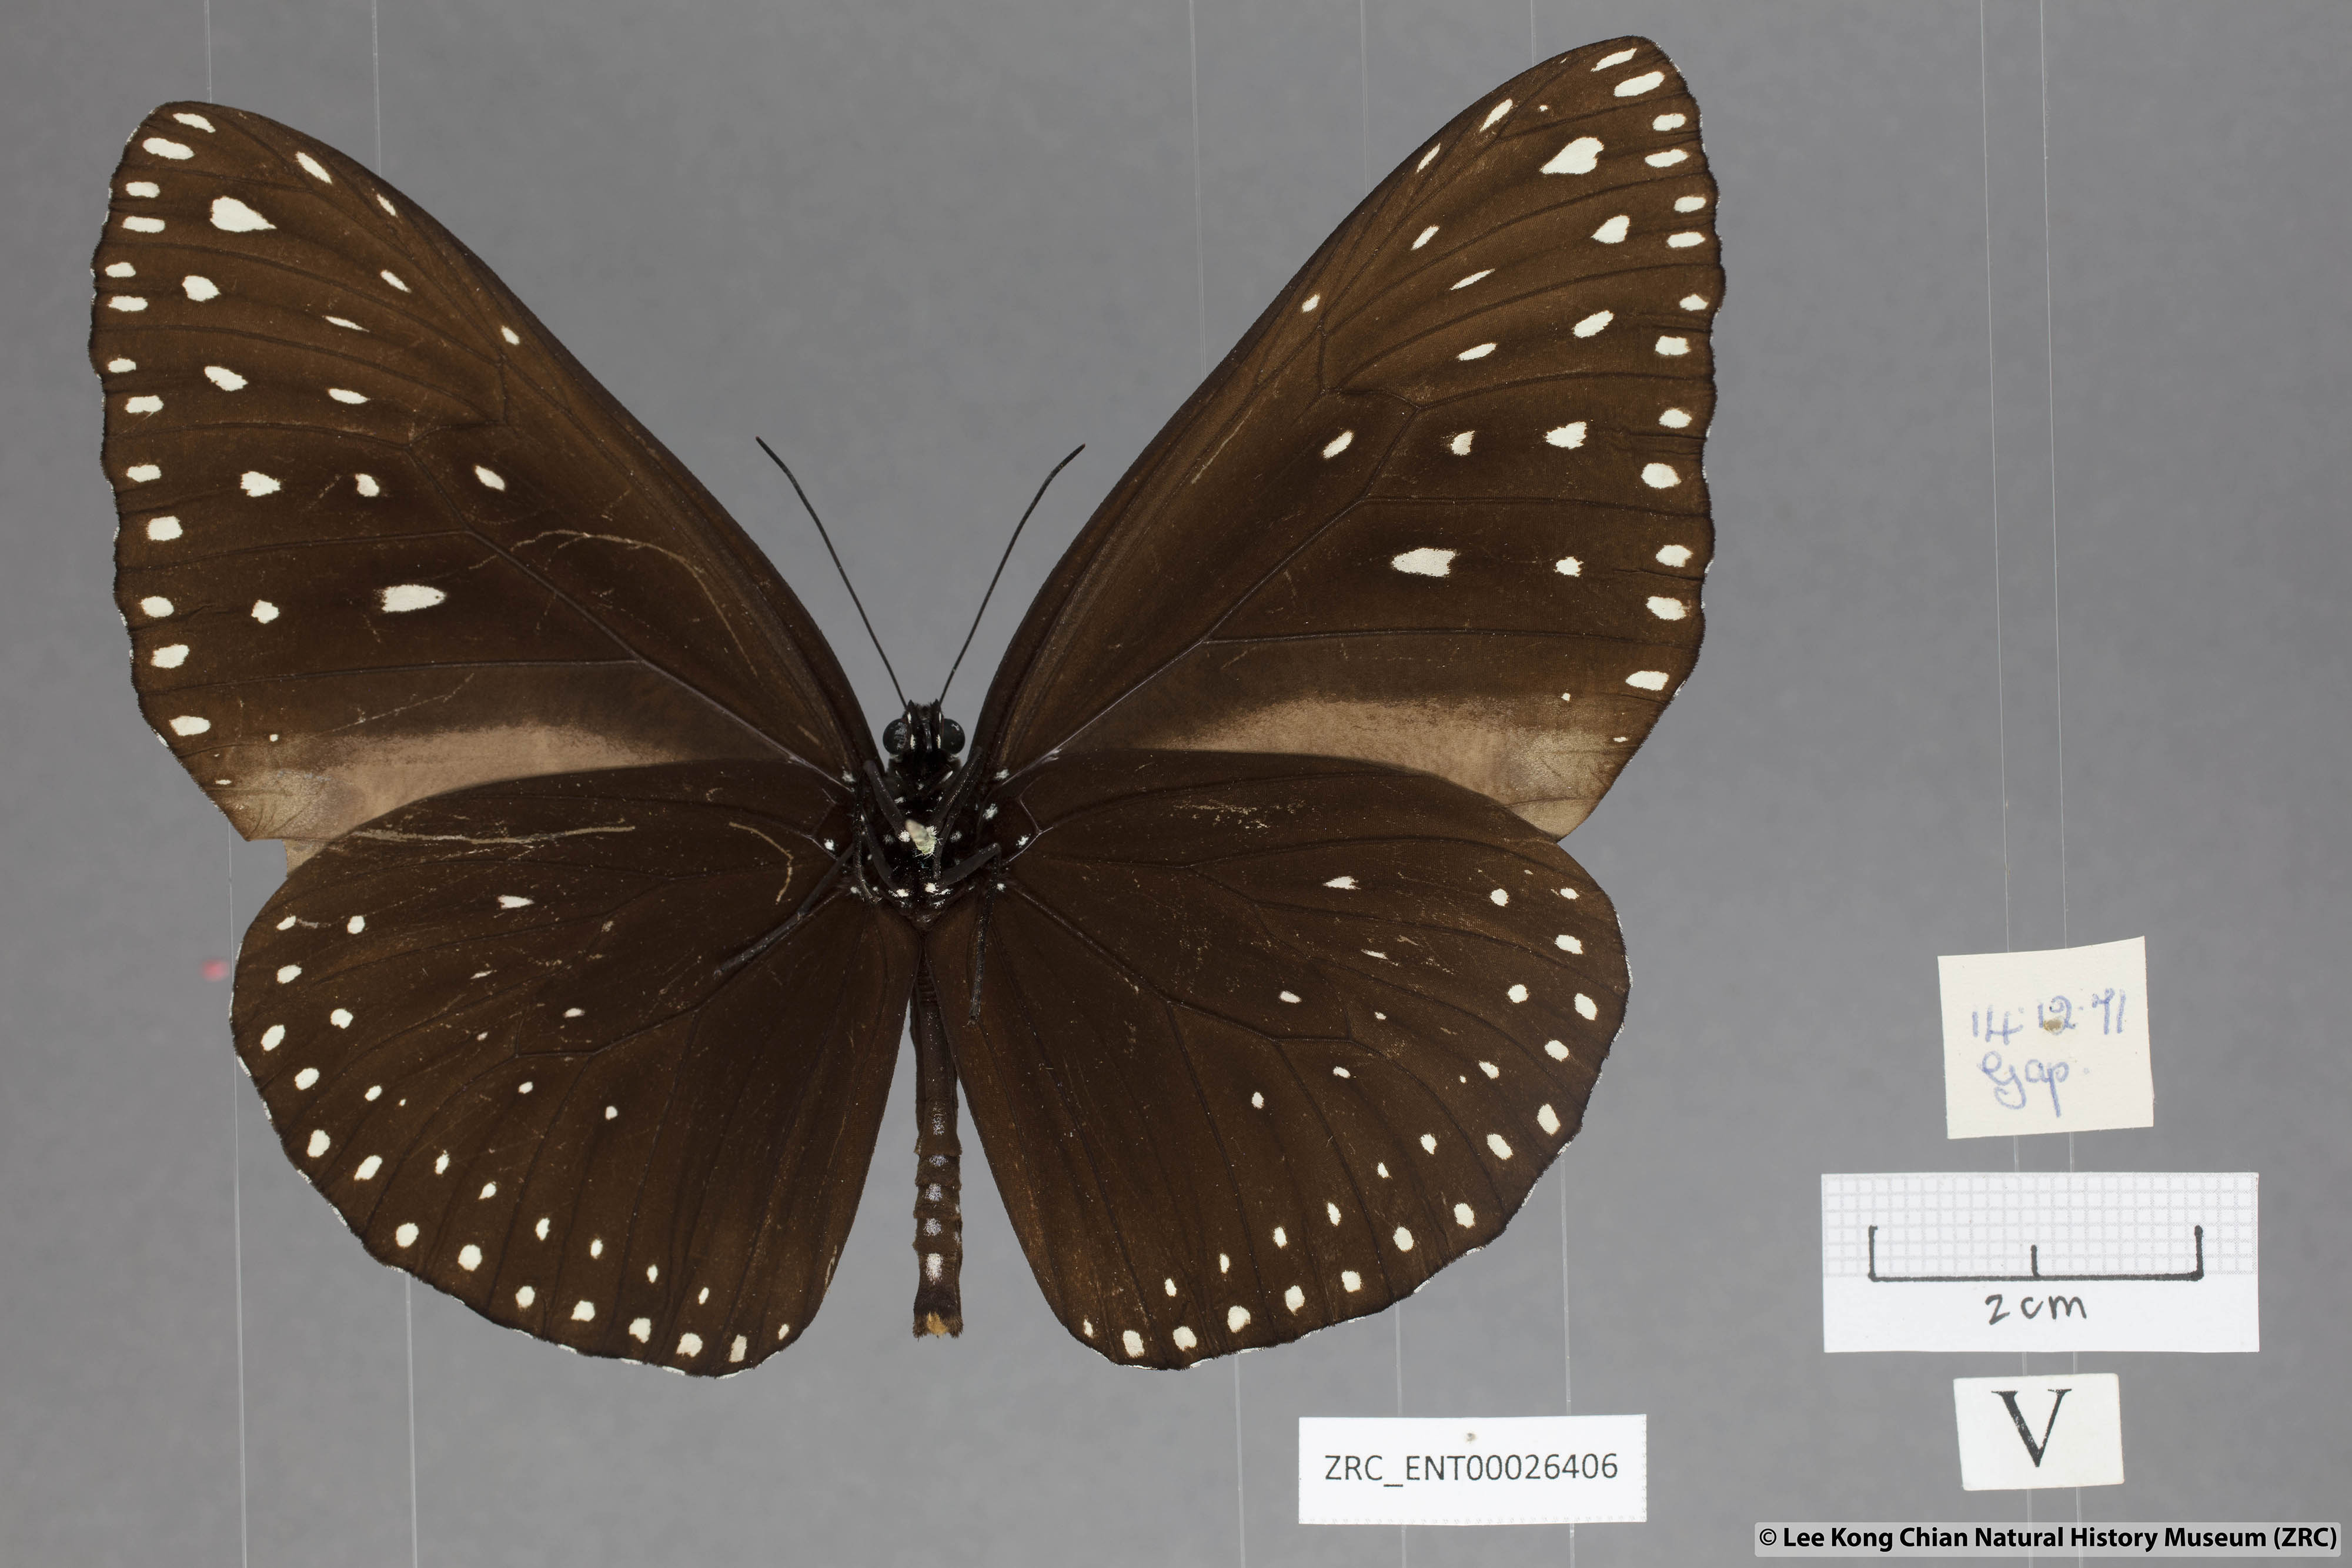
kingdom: Animalia
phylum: Arthropoda
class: Insecta
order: Lepidoptera
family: Nymphalidae
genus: Euploea
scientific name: Euploea camaralzeman
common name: Malayan crow butterfly
